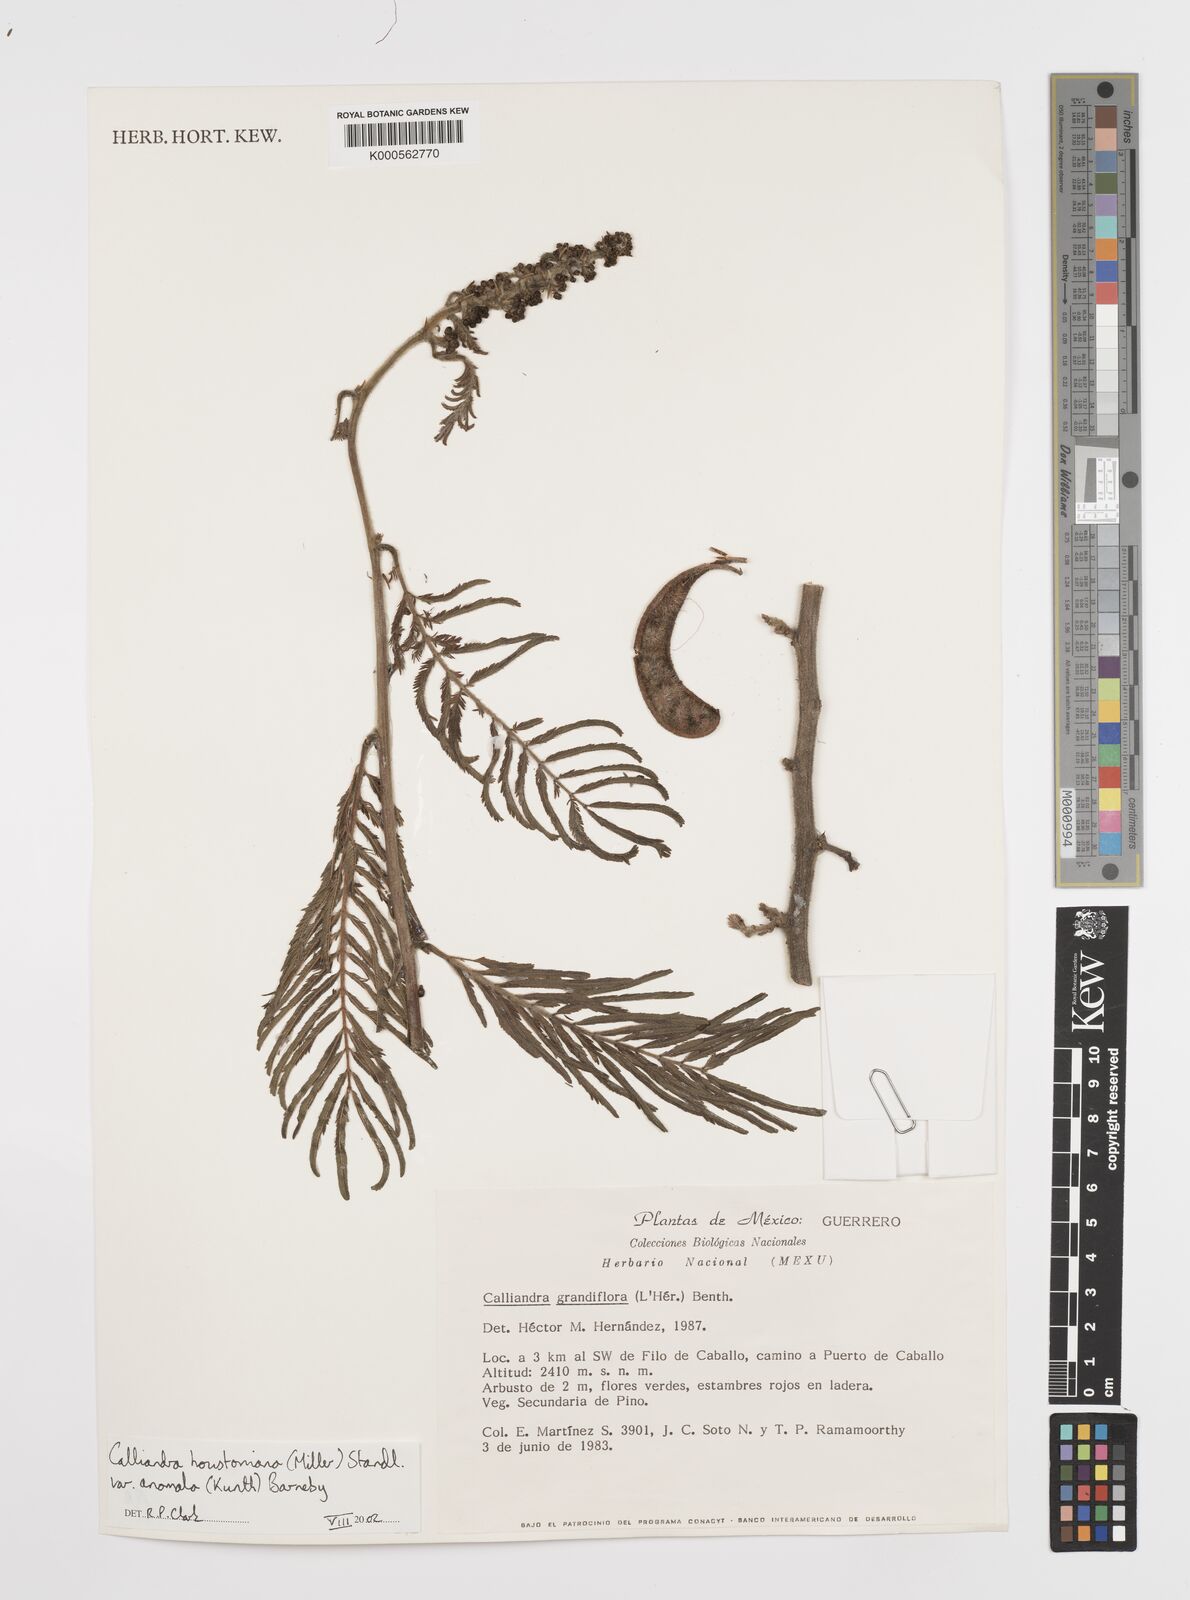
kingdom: Plantae
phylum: Tracheophyta
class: Magnoliopsida
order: Fabales
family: Fabaceae
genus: Calliandra
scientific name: Calliandra houstoniana
